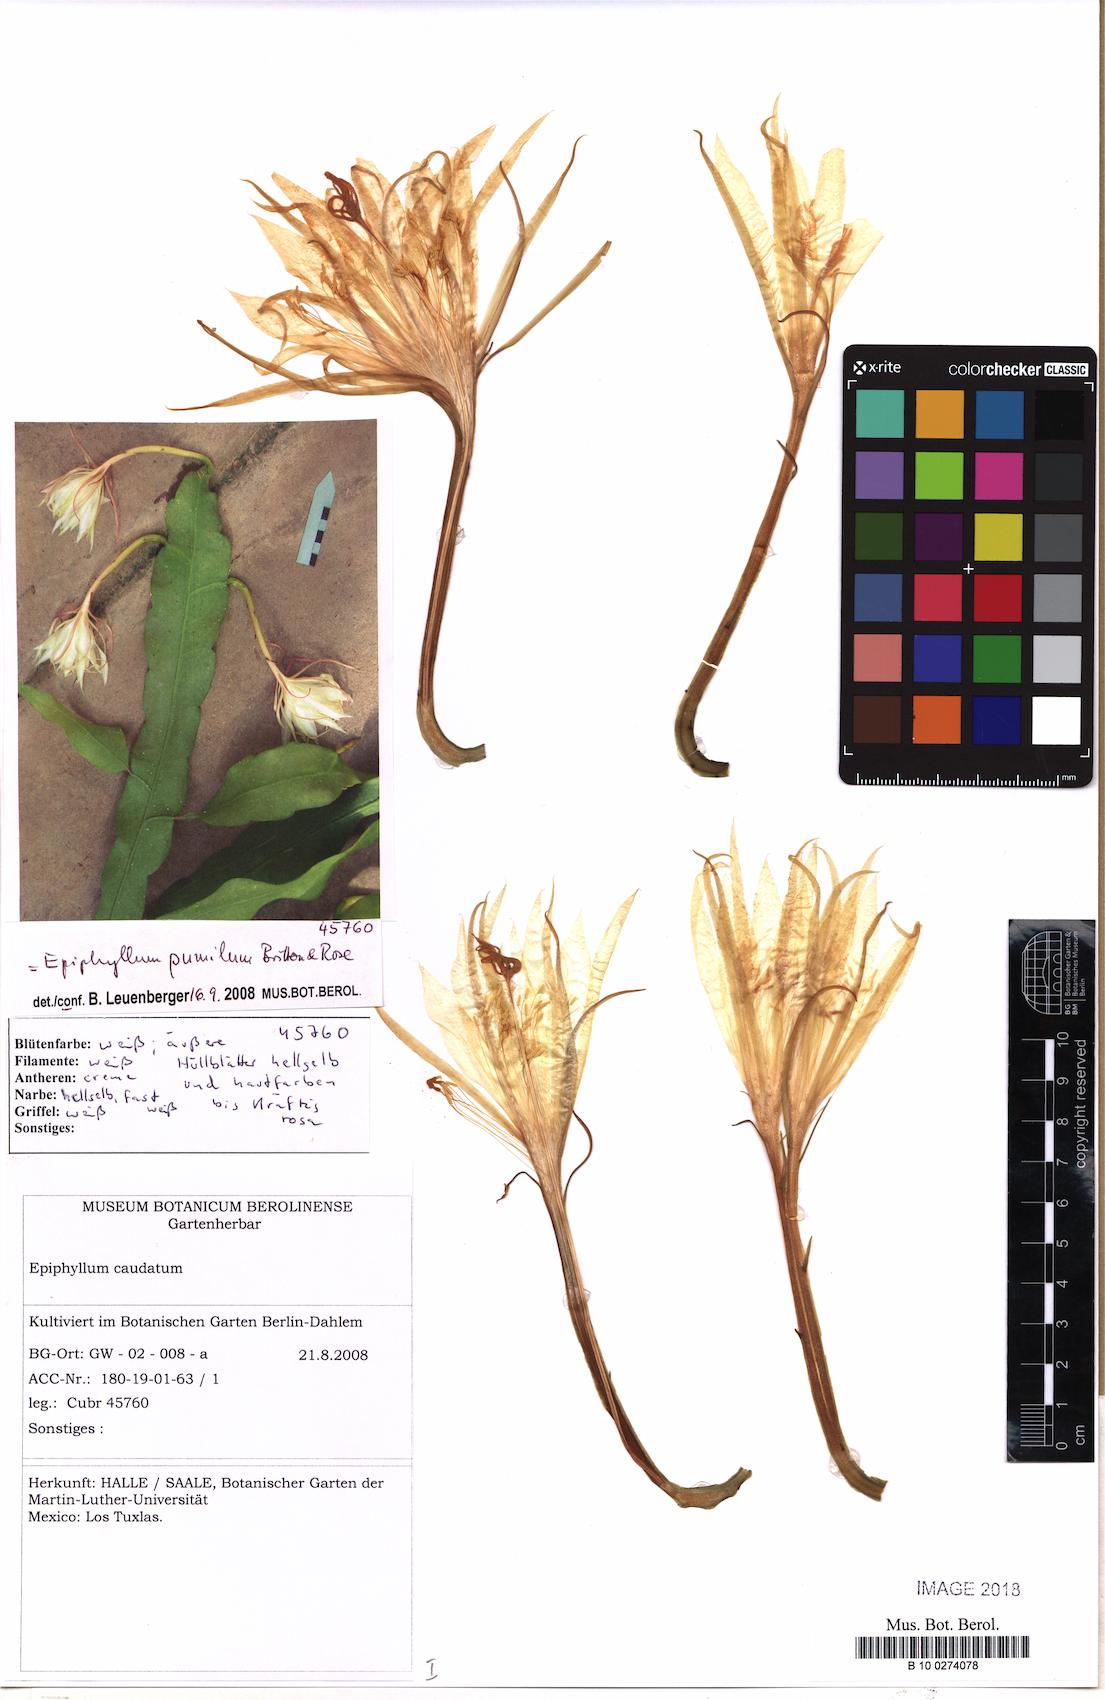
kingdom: Plantae
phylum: Tracheophyta
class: Magnoliopsida
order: Caryophyllales
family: Cactaceae
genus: Epiphyllum
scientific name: Epiphyllum pumilum
